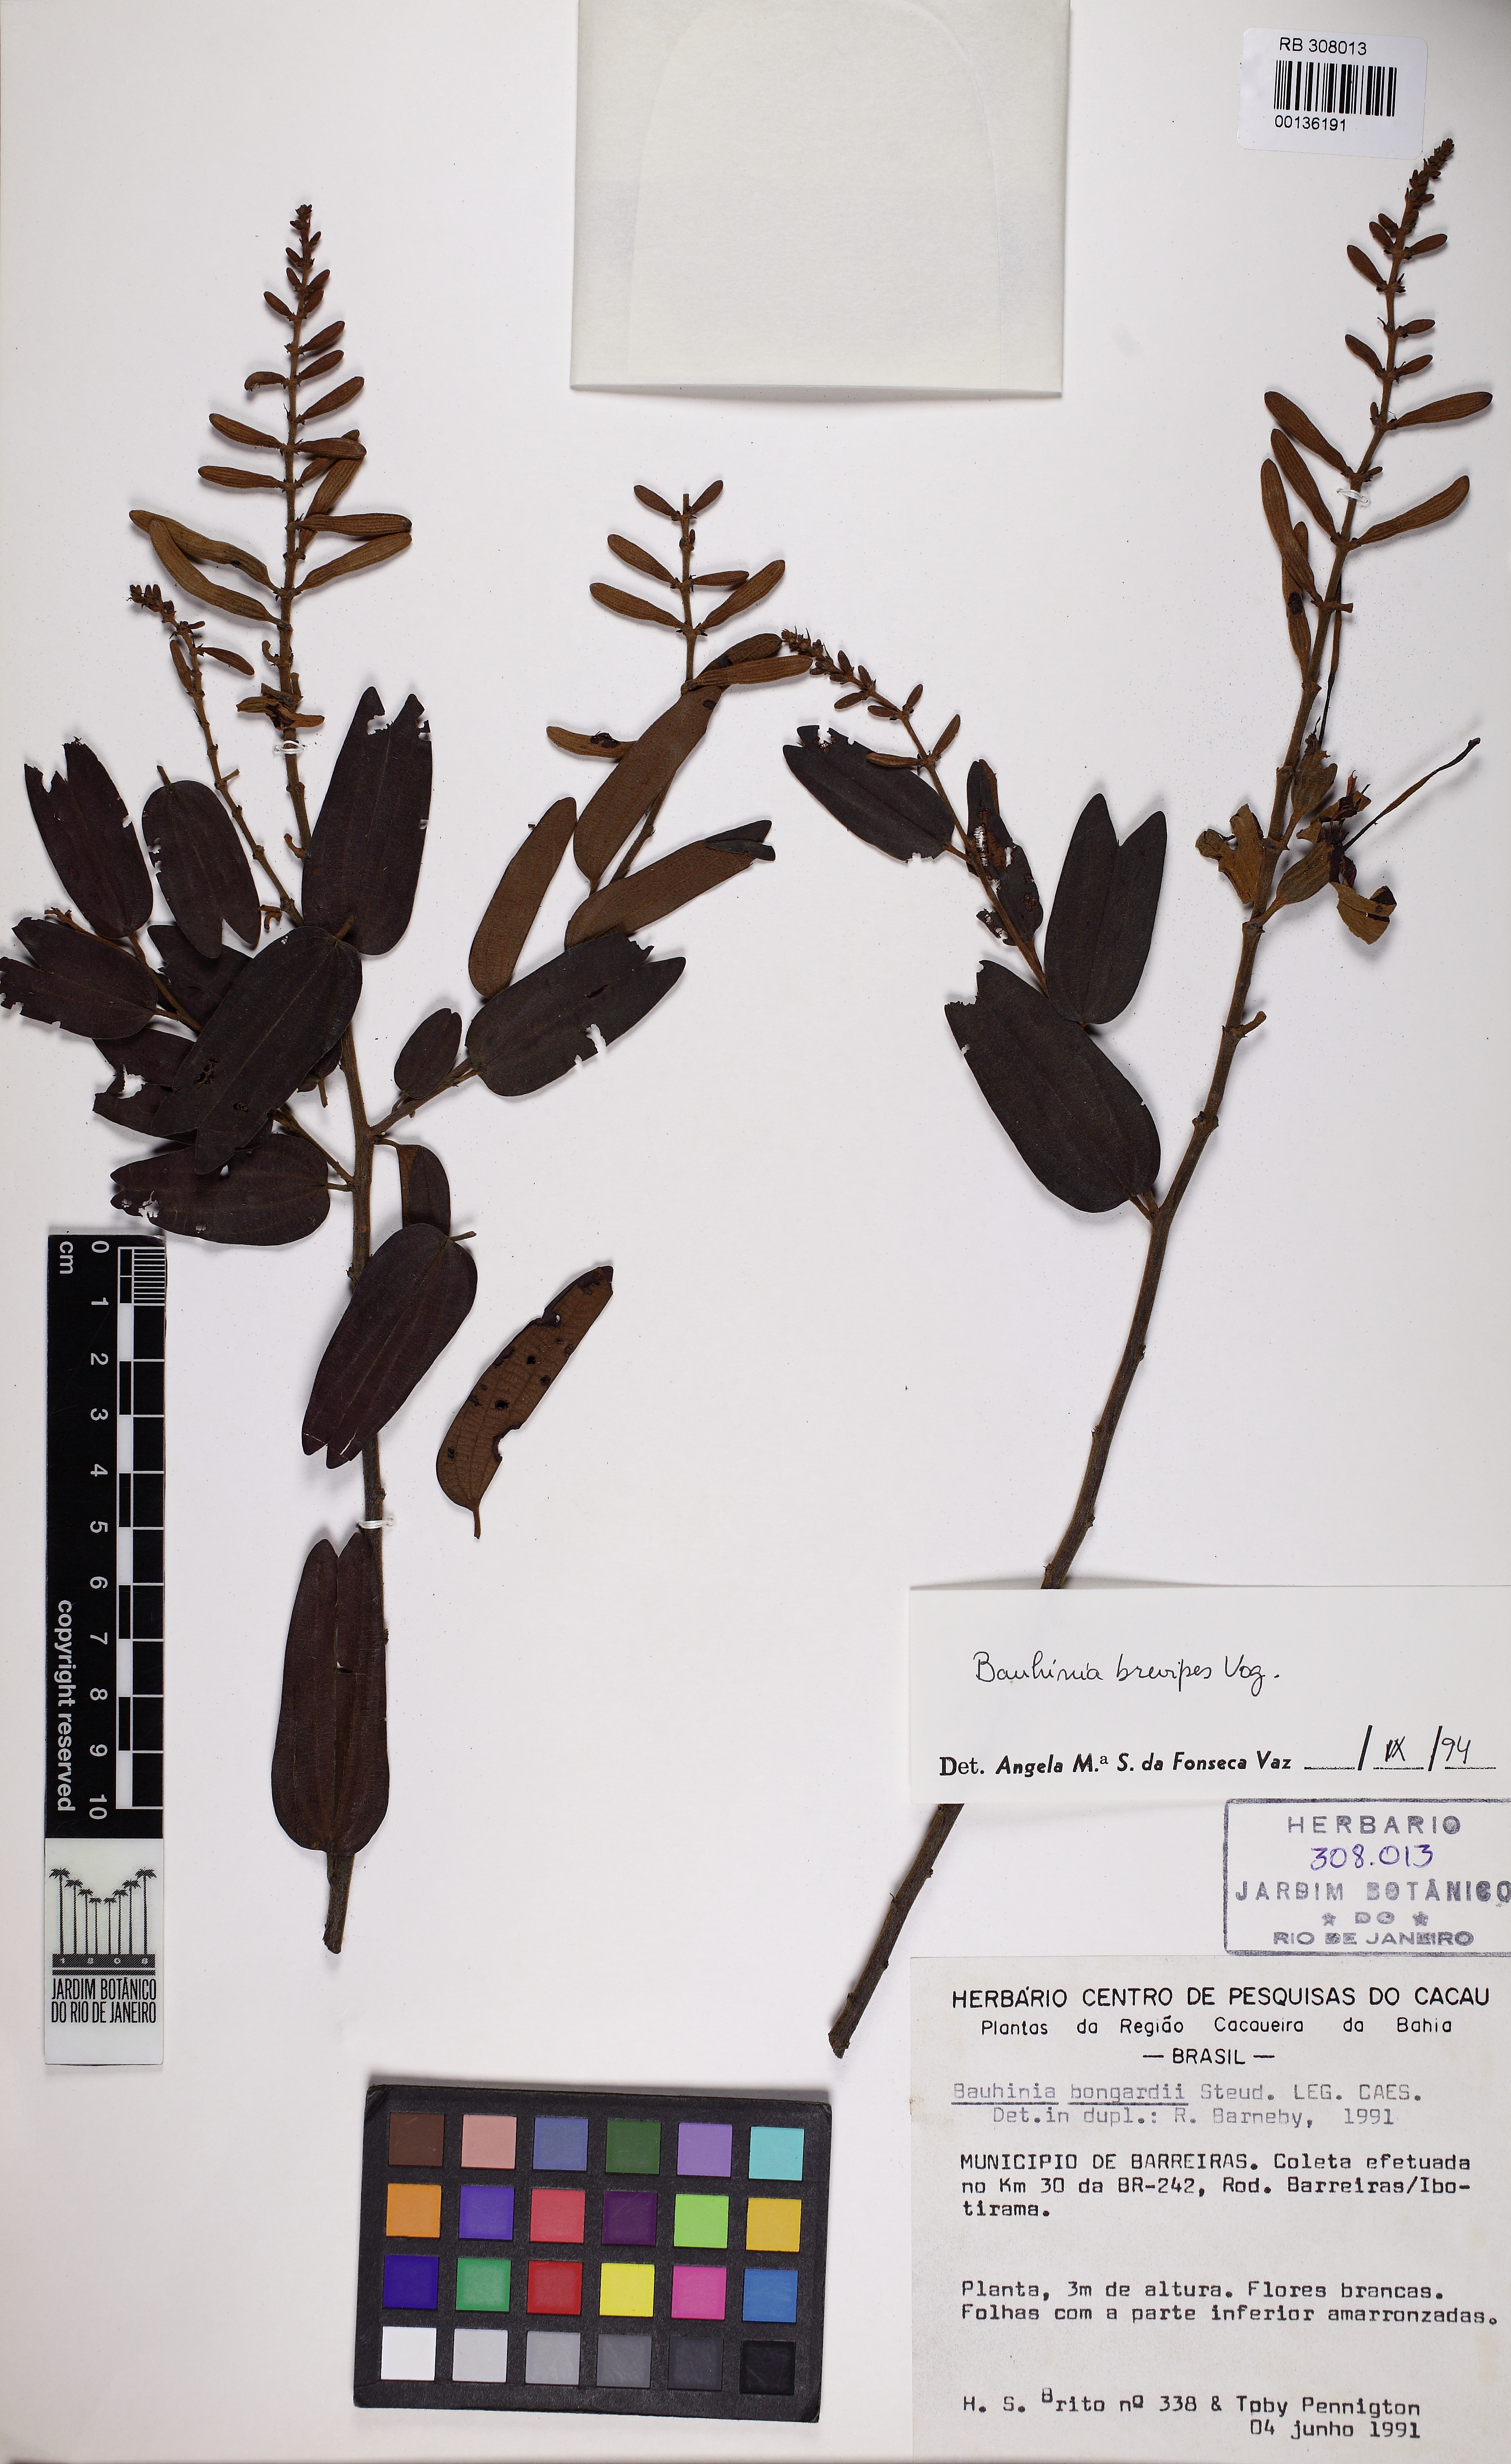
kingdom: Plantae
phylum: Tracheophyta
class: Magnoliopsida
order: Fabales
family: Fabaceae
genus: Bauhinia
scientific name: Bauhinia brevipes
